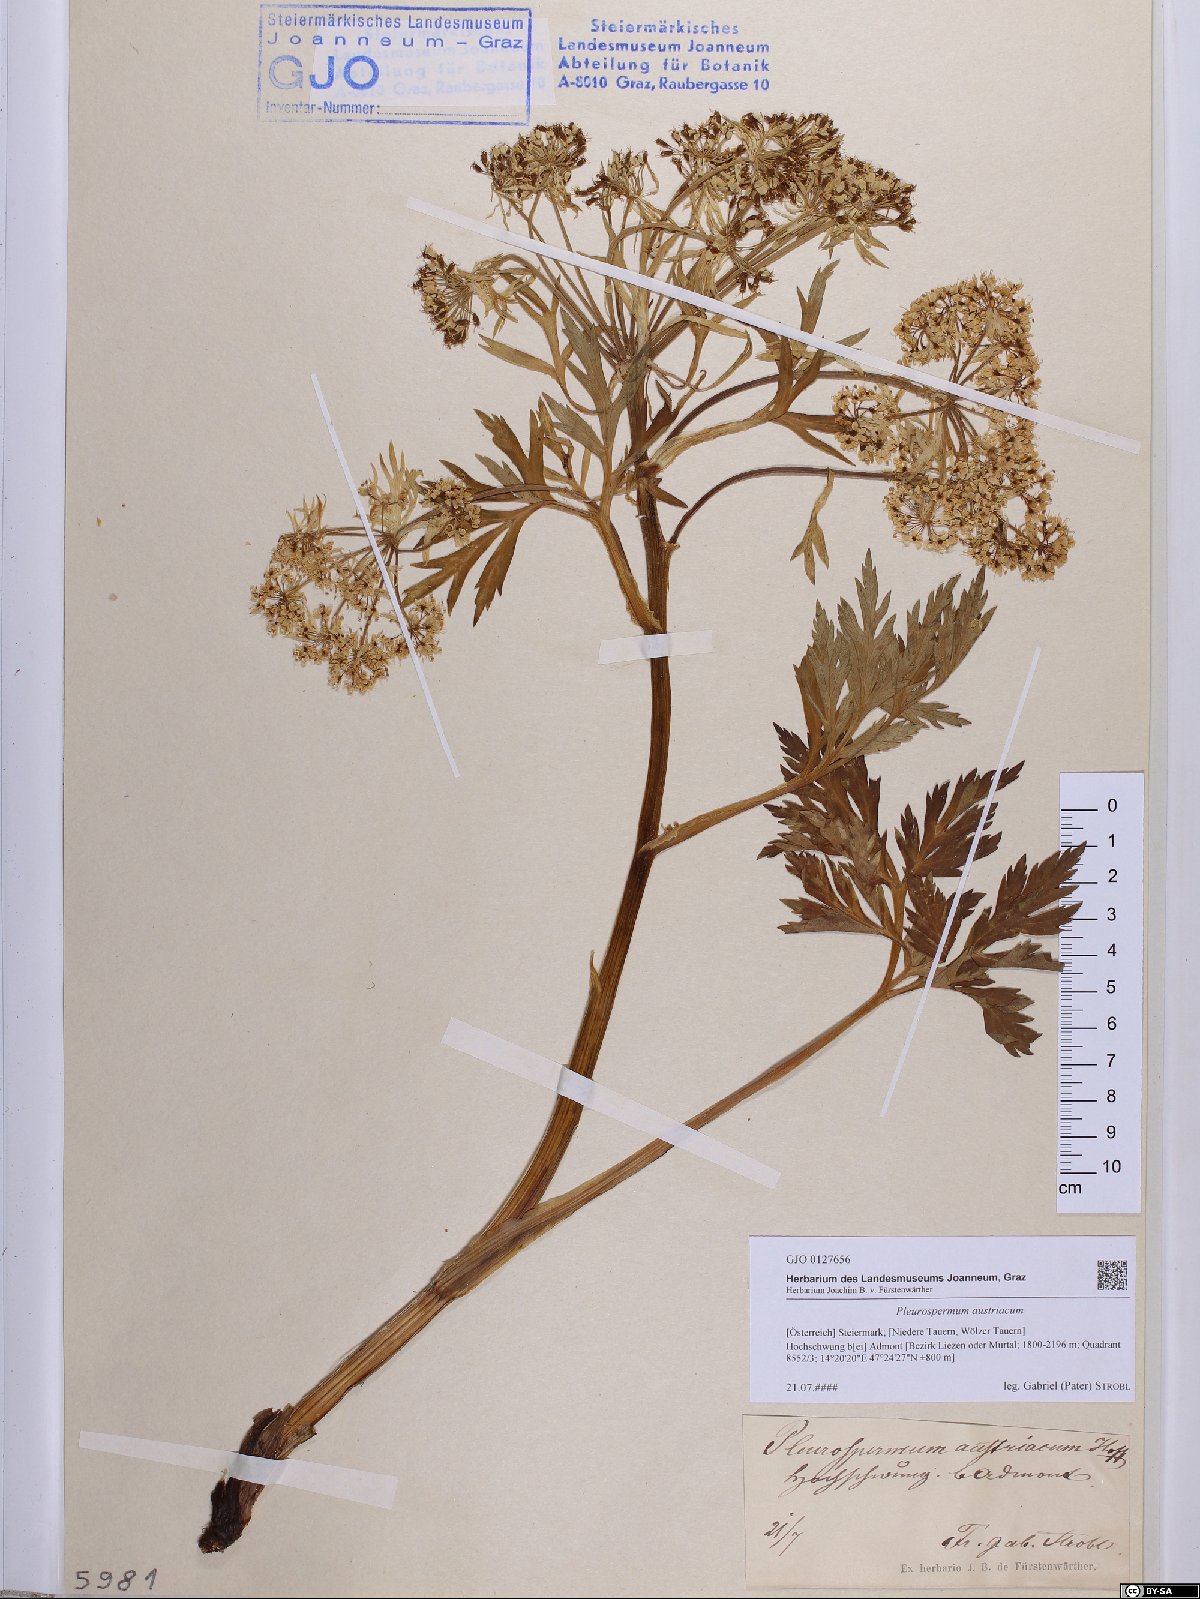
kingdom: Plantae
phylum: Tracheophyta
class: Magnoliopsida
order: Apiales
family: Apiaceae
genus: Pleurospermum
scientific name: Pleurospermum austriacum
